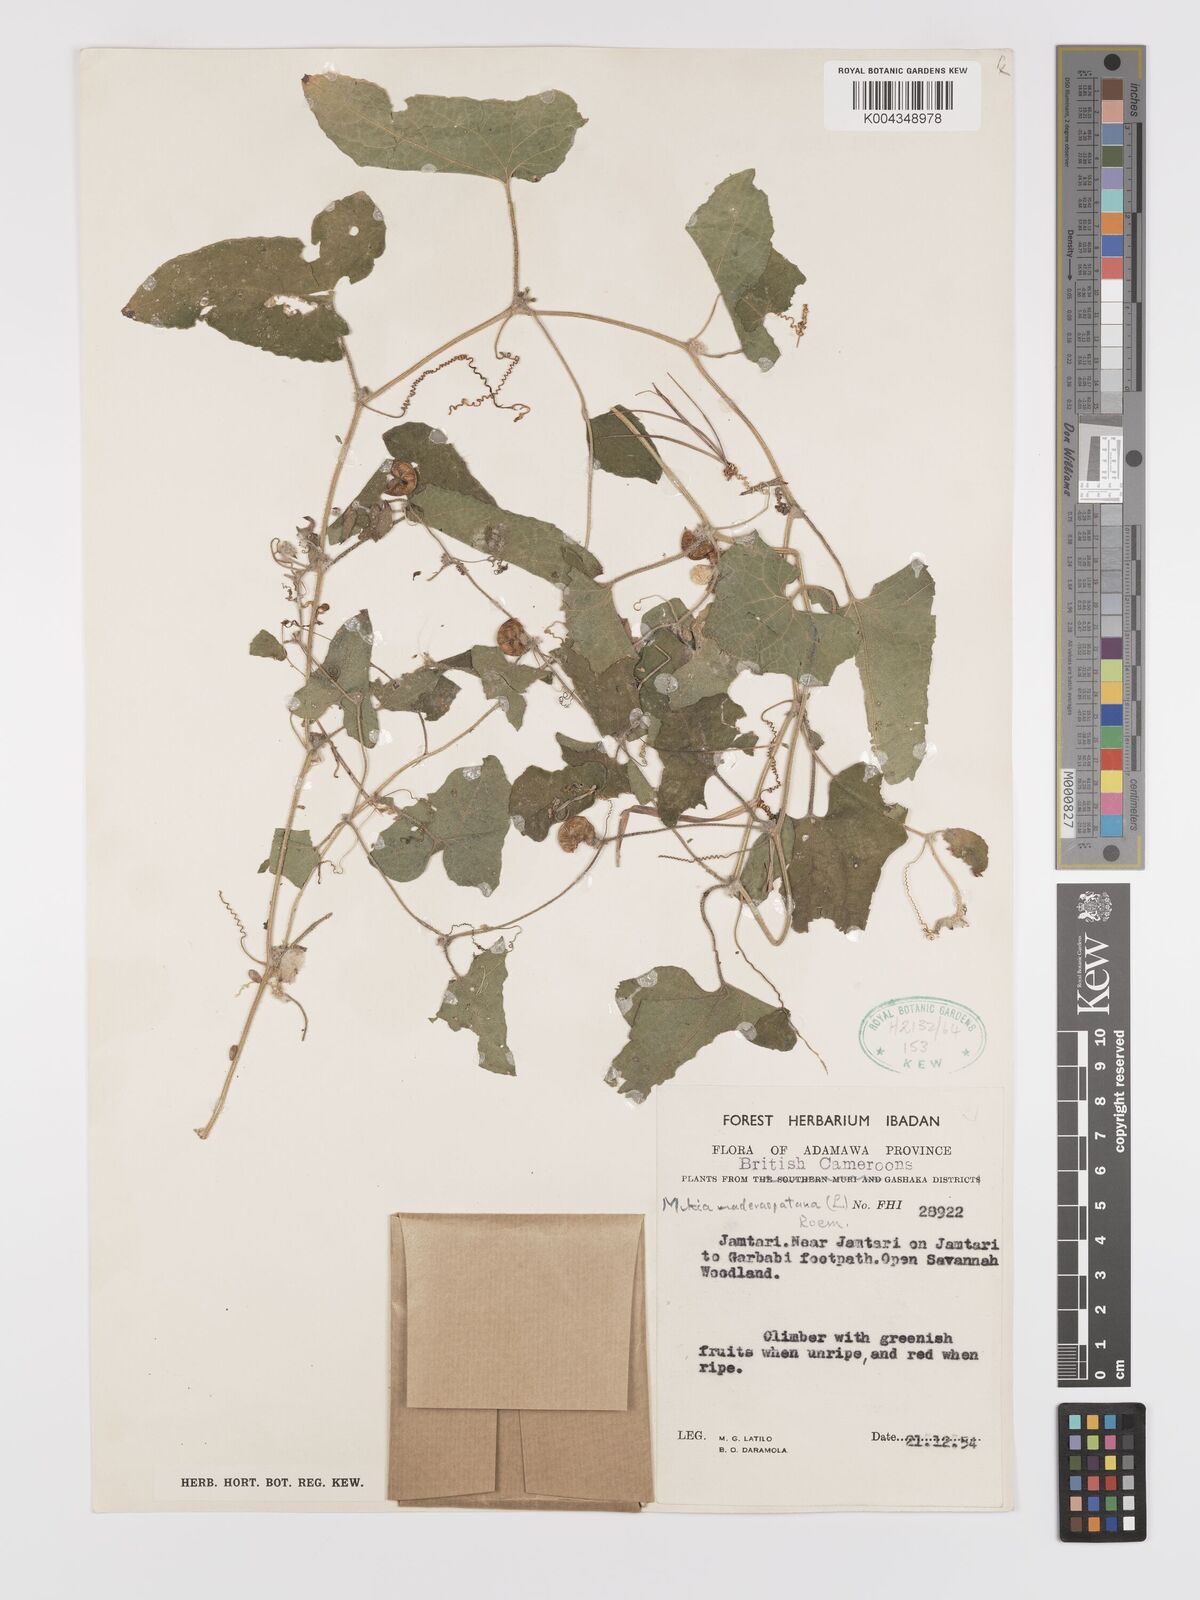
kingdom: Plantae
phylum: Tracheophyta
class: Magnoliopsida
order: Cucurbitales
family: Cucurbitaceae
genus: Cucumis
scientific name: Cucumis maderaspatanus
